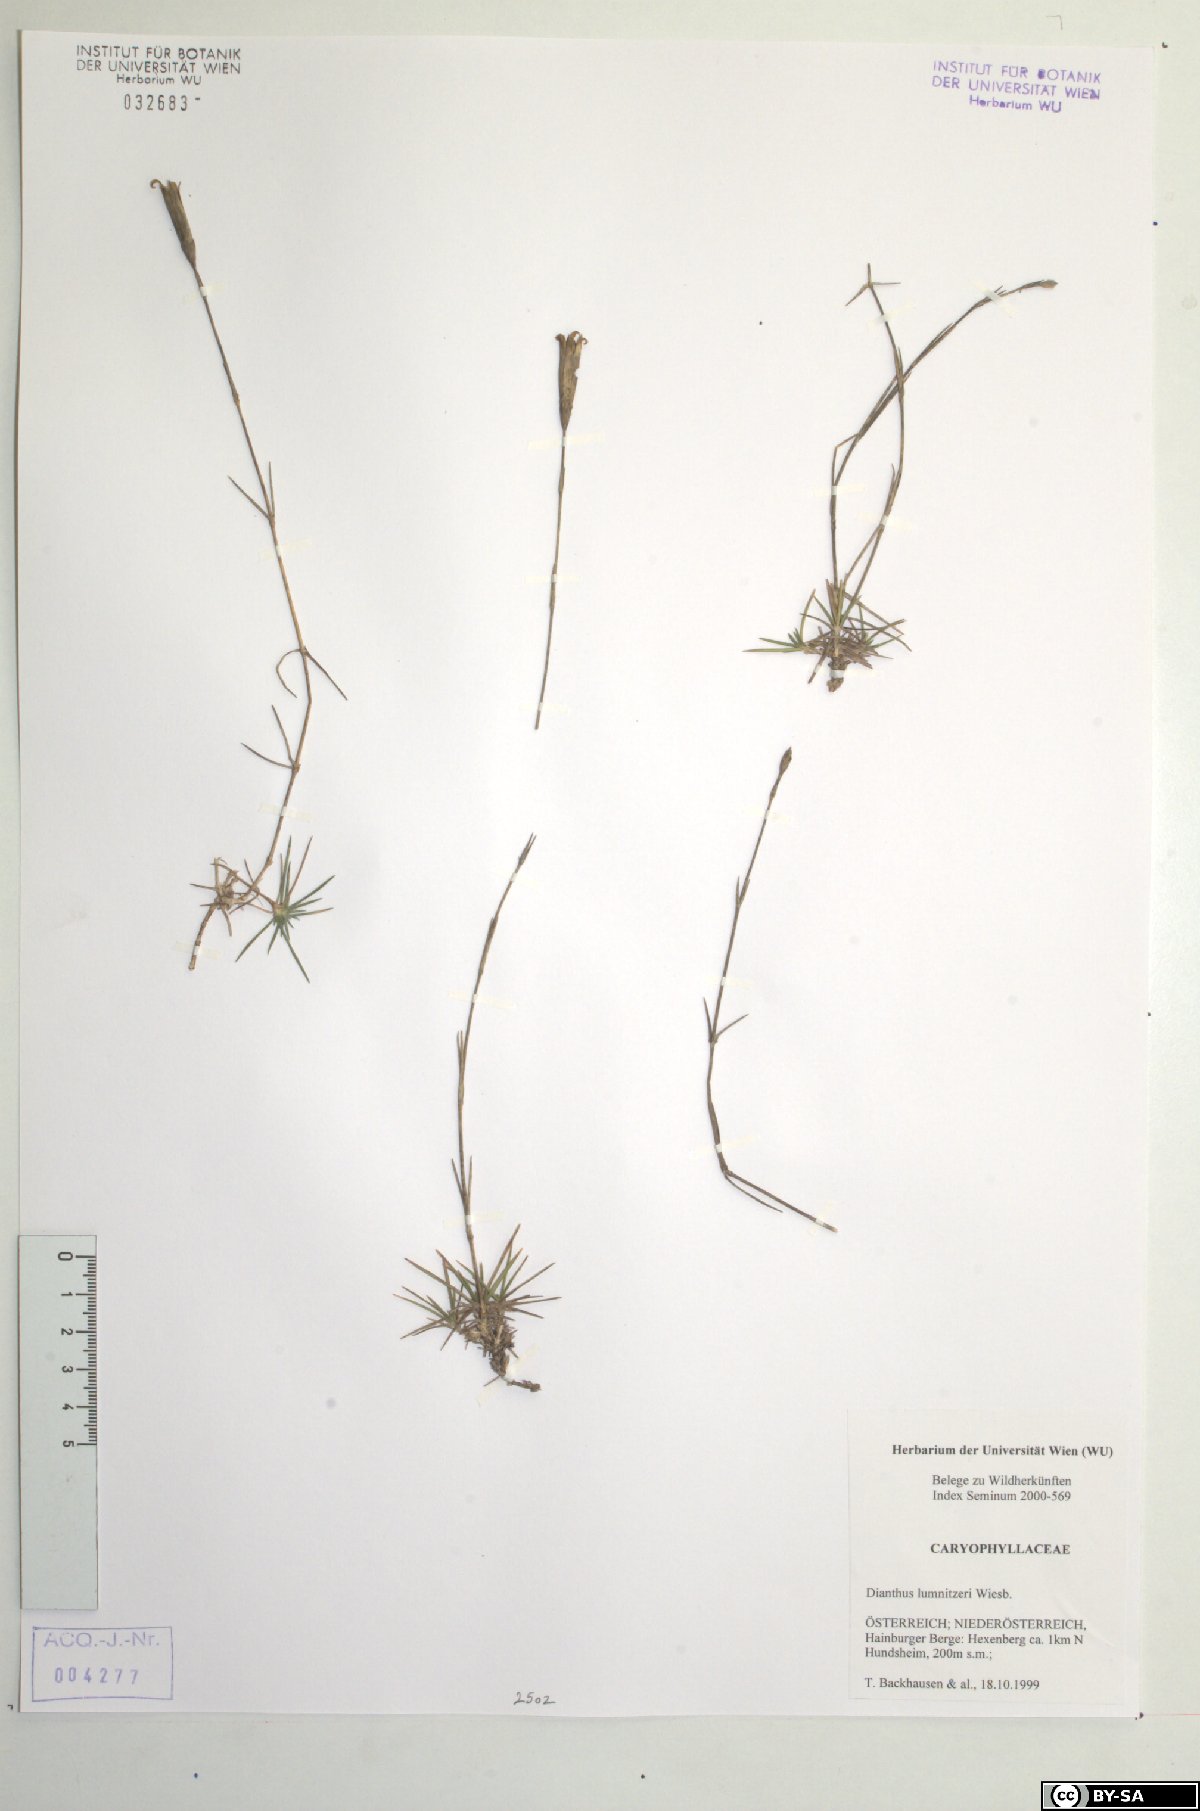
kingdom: Plantae
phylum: Tracheophyta
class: Magnoliopsida
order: Caryophyllales
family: Caryophyllaceae
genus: Dianthus
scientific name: Dianthus praecox
